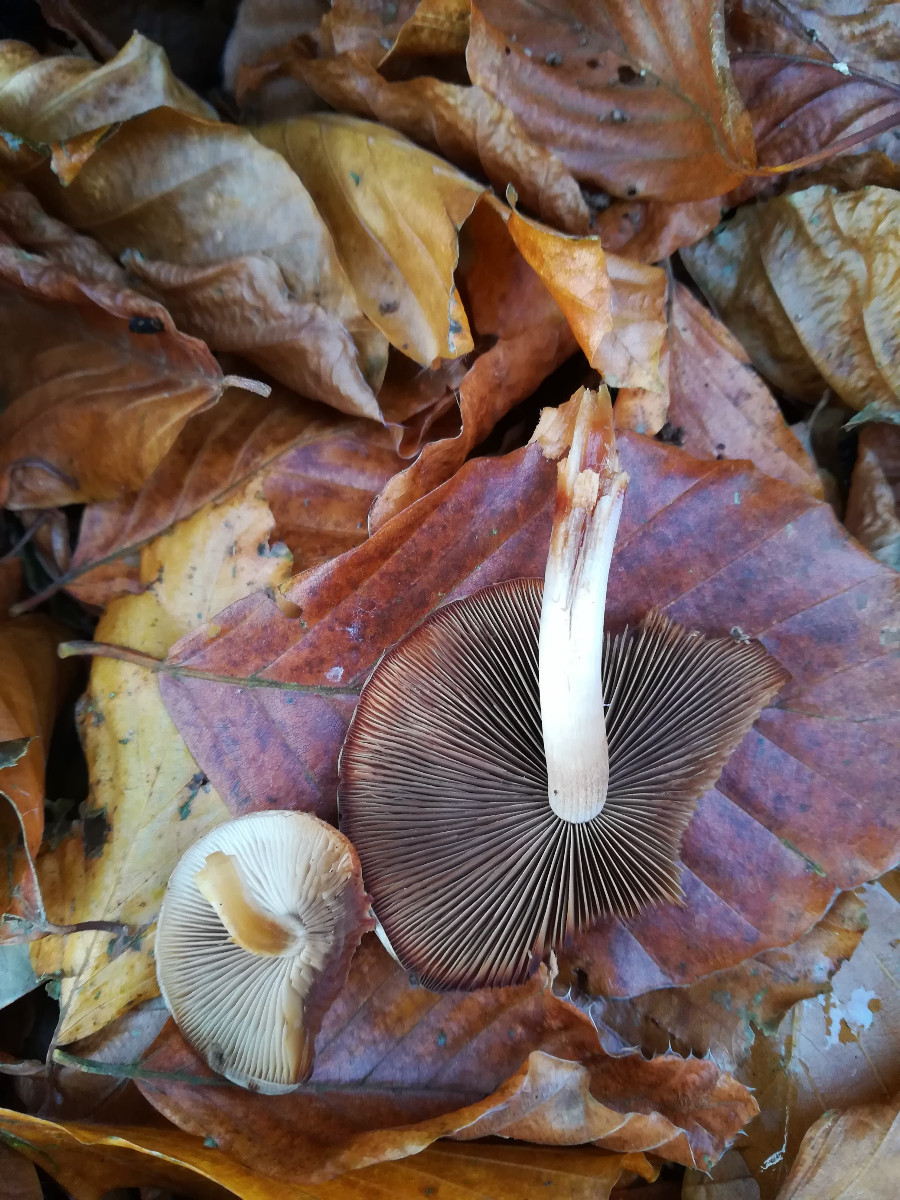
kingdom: Fungi
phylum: Basidiomycota
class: Agaricomycetes
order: Agaricales
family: Psathyrellaceae
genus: Psathyrella
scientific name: Psathyrella piluliformis
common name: lysstokket mørkhat
